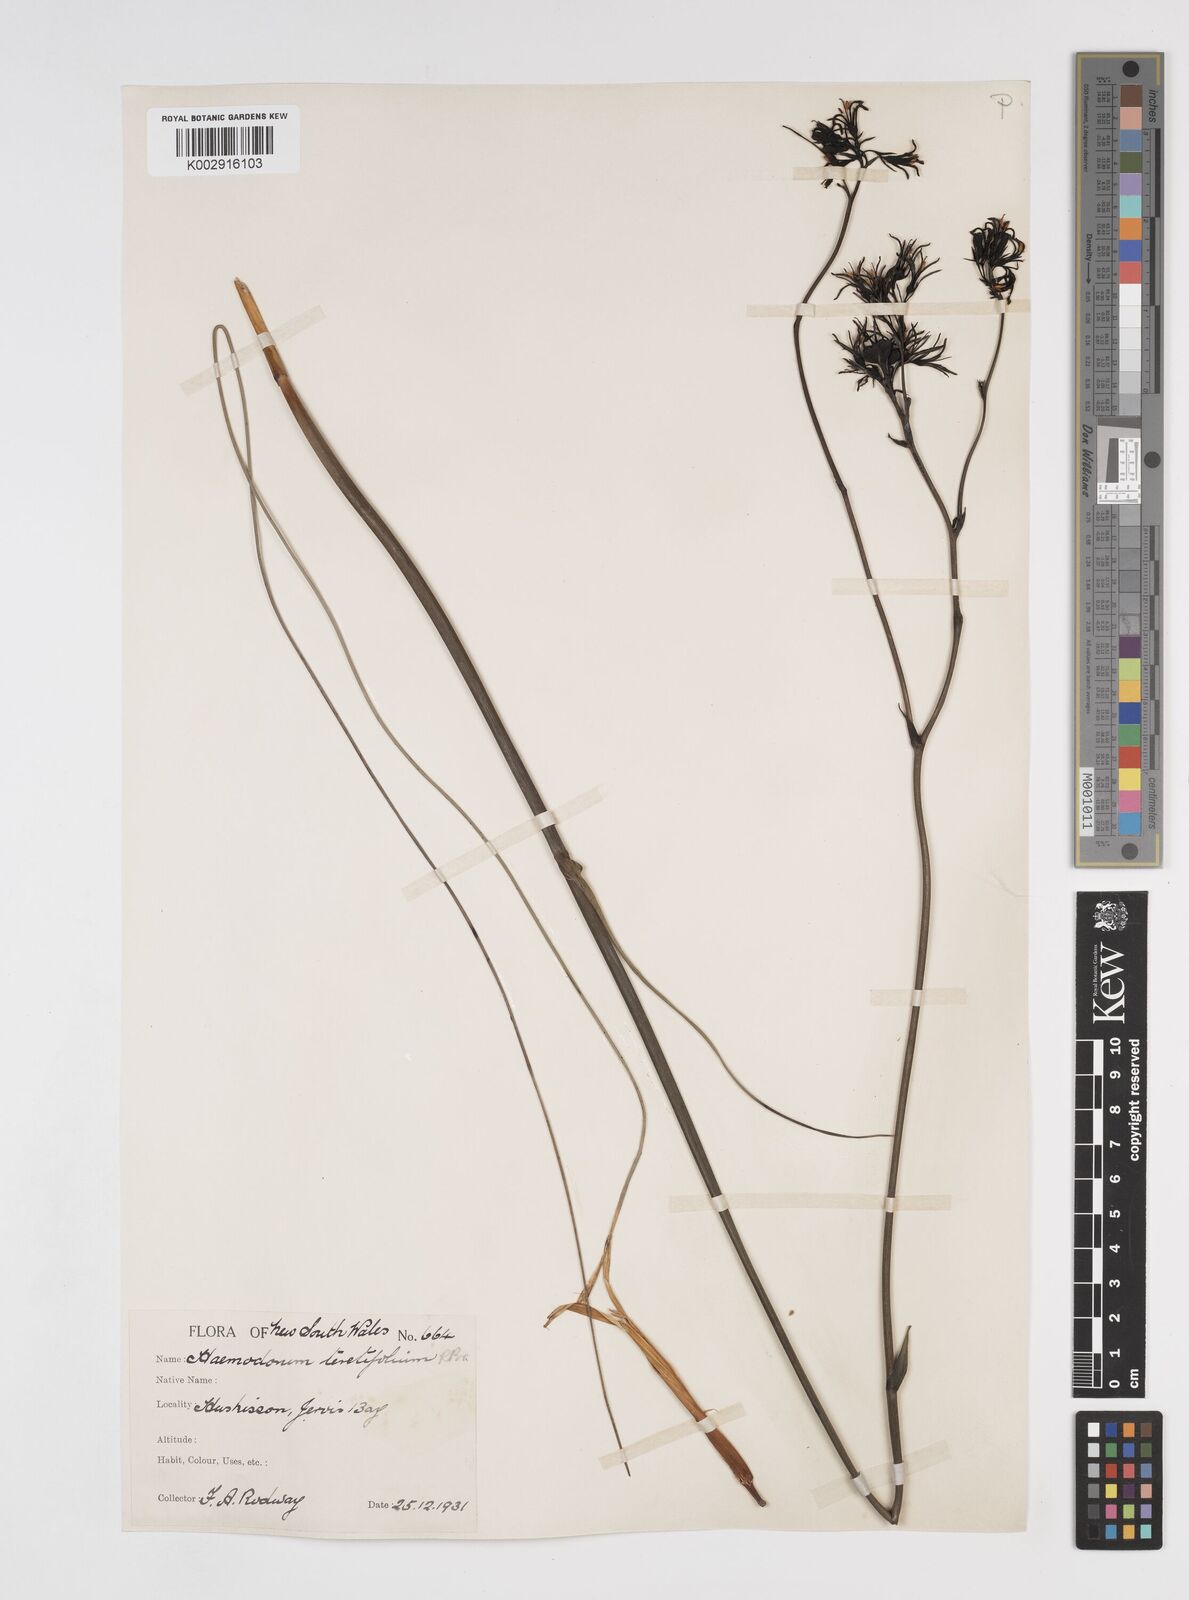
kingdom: Plantae
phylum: Tracheophyta
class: Liliopsida
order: Commelinales
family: Haemodoraceae
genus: Haemodorum
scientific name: Haemodorum corymbosum
